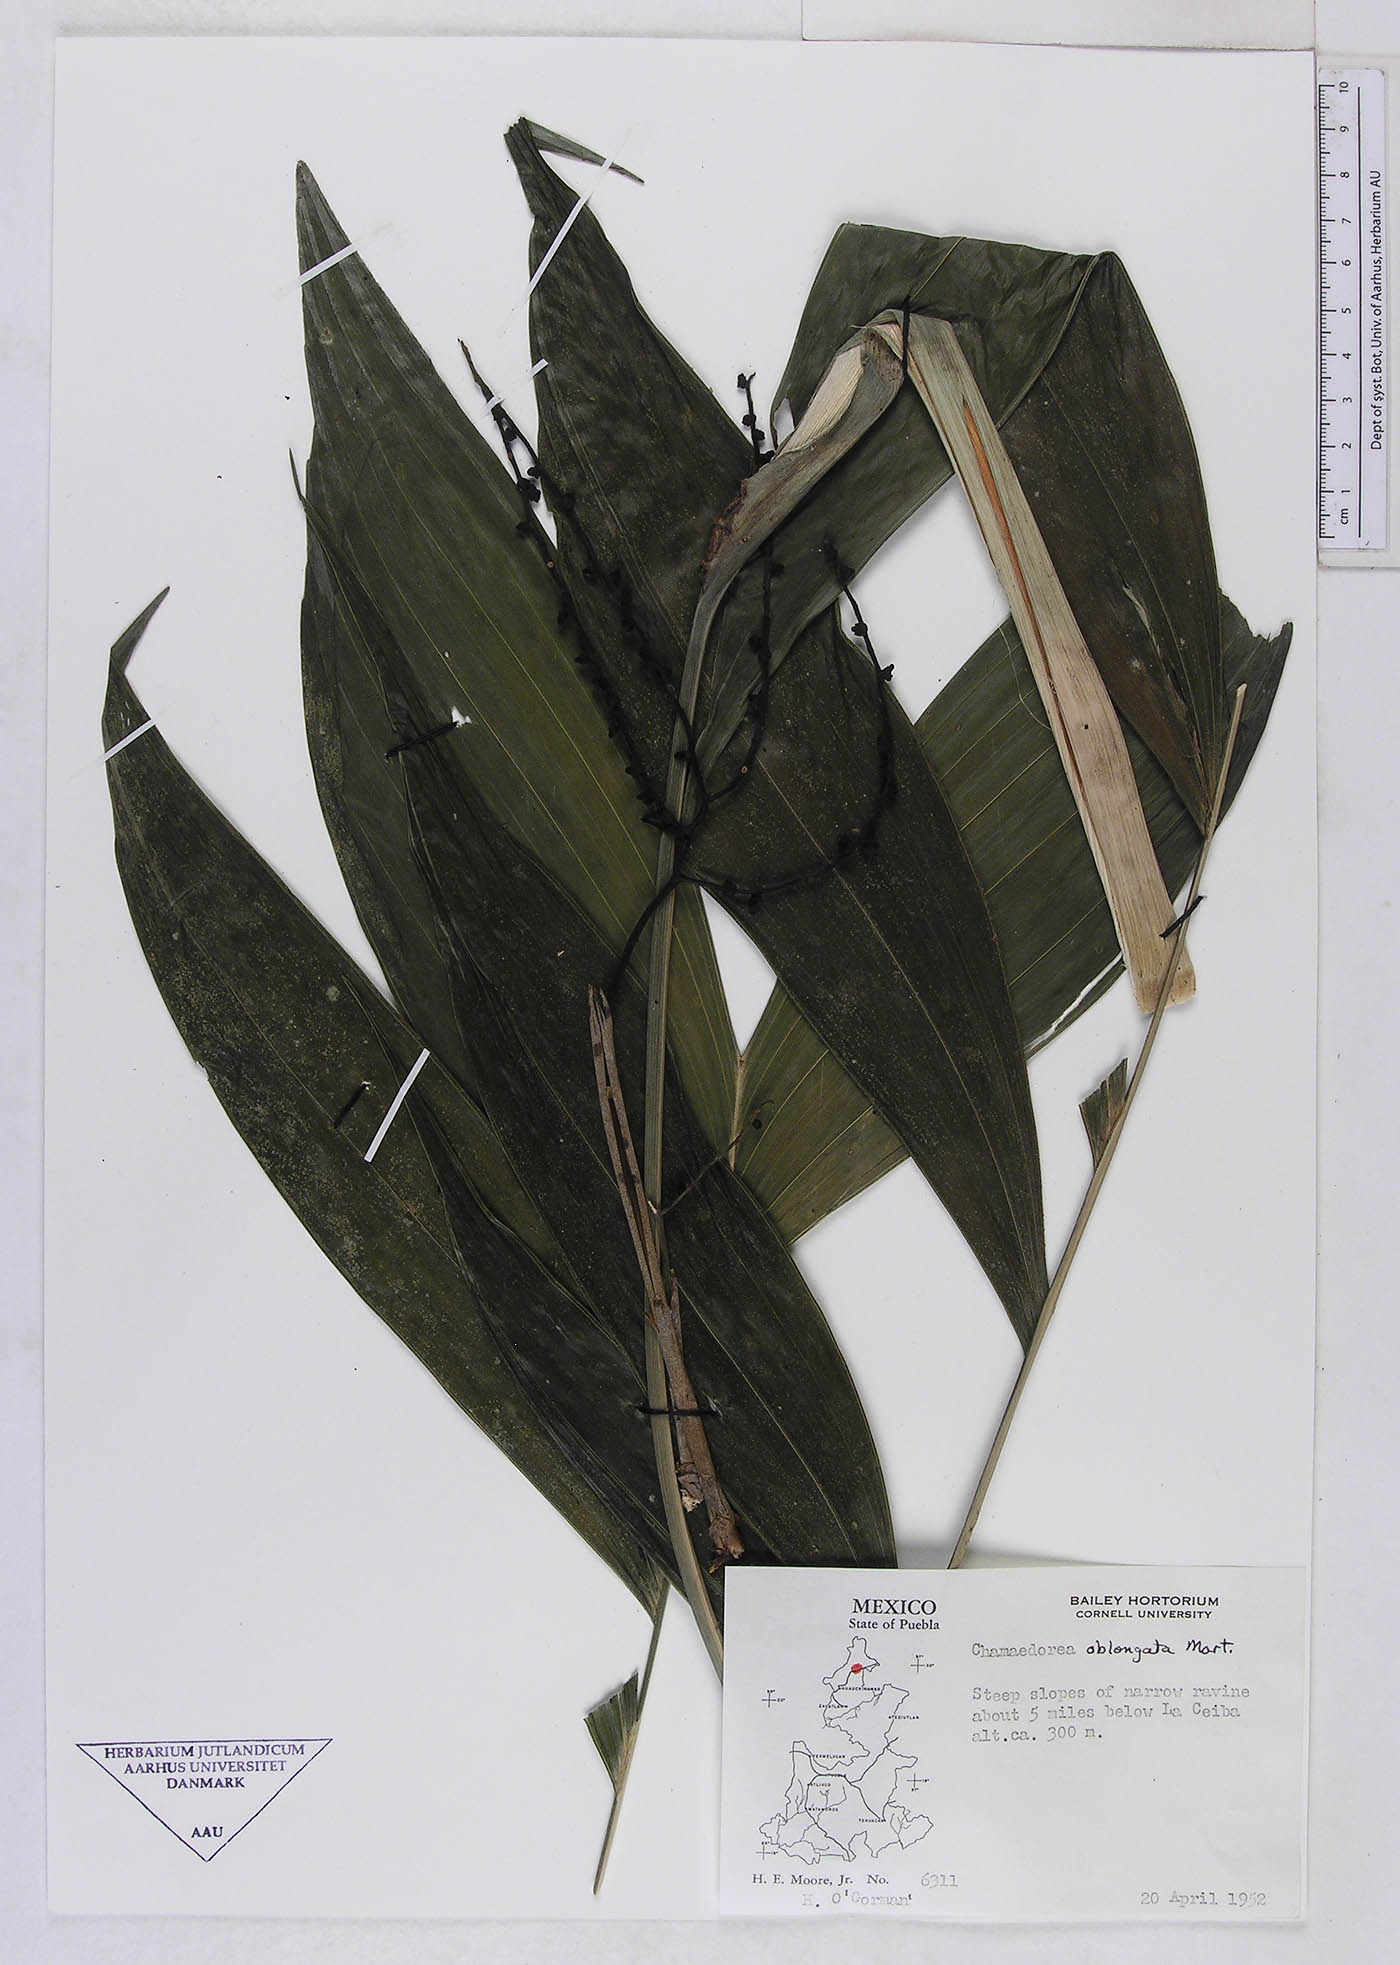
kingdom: Plantae
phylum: Tracheophyta
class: Liliopsida
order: Arecales
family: Arecaceae
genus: Chamaedorea
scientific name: Chamaedorea oblongata
